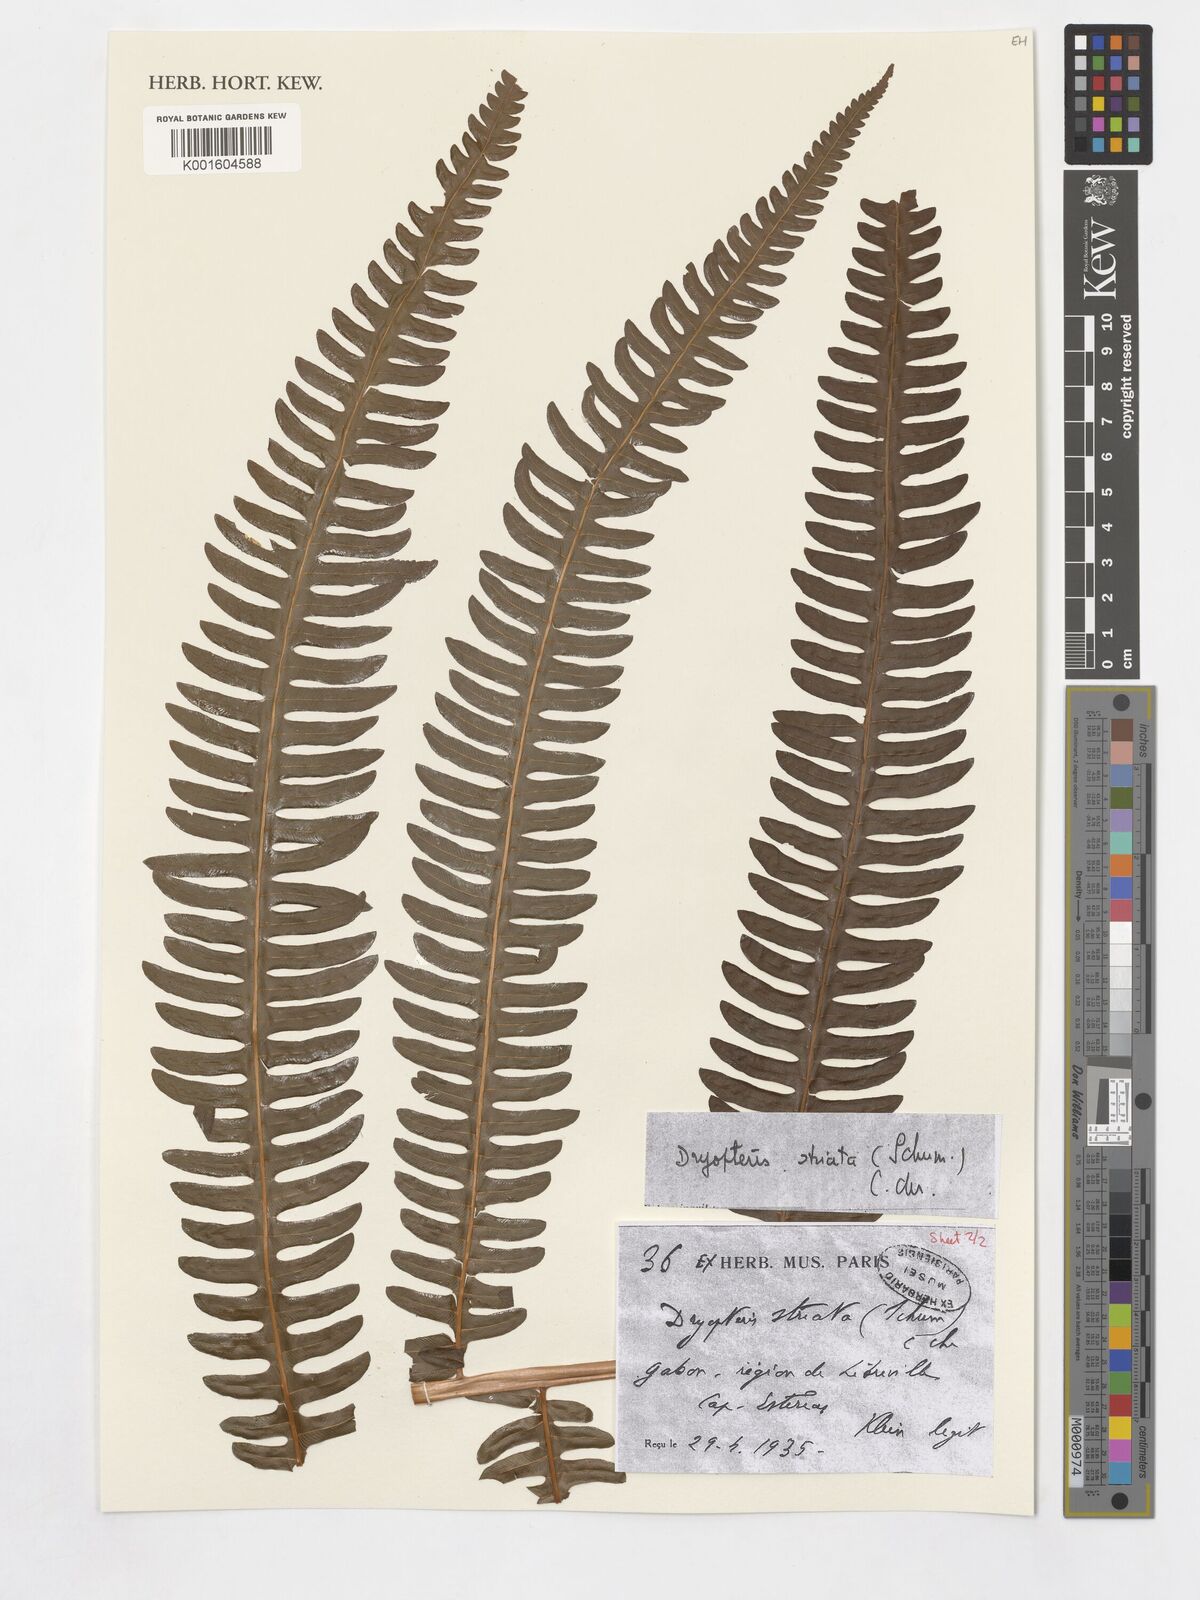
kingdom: Plantae
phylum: Tracheophyta
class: Polypodiopsida
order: Polypodiales
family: Thelypteridaceae
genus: Cyclosorus
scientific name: Cyclosorus striatus
